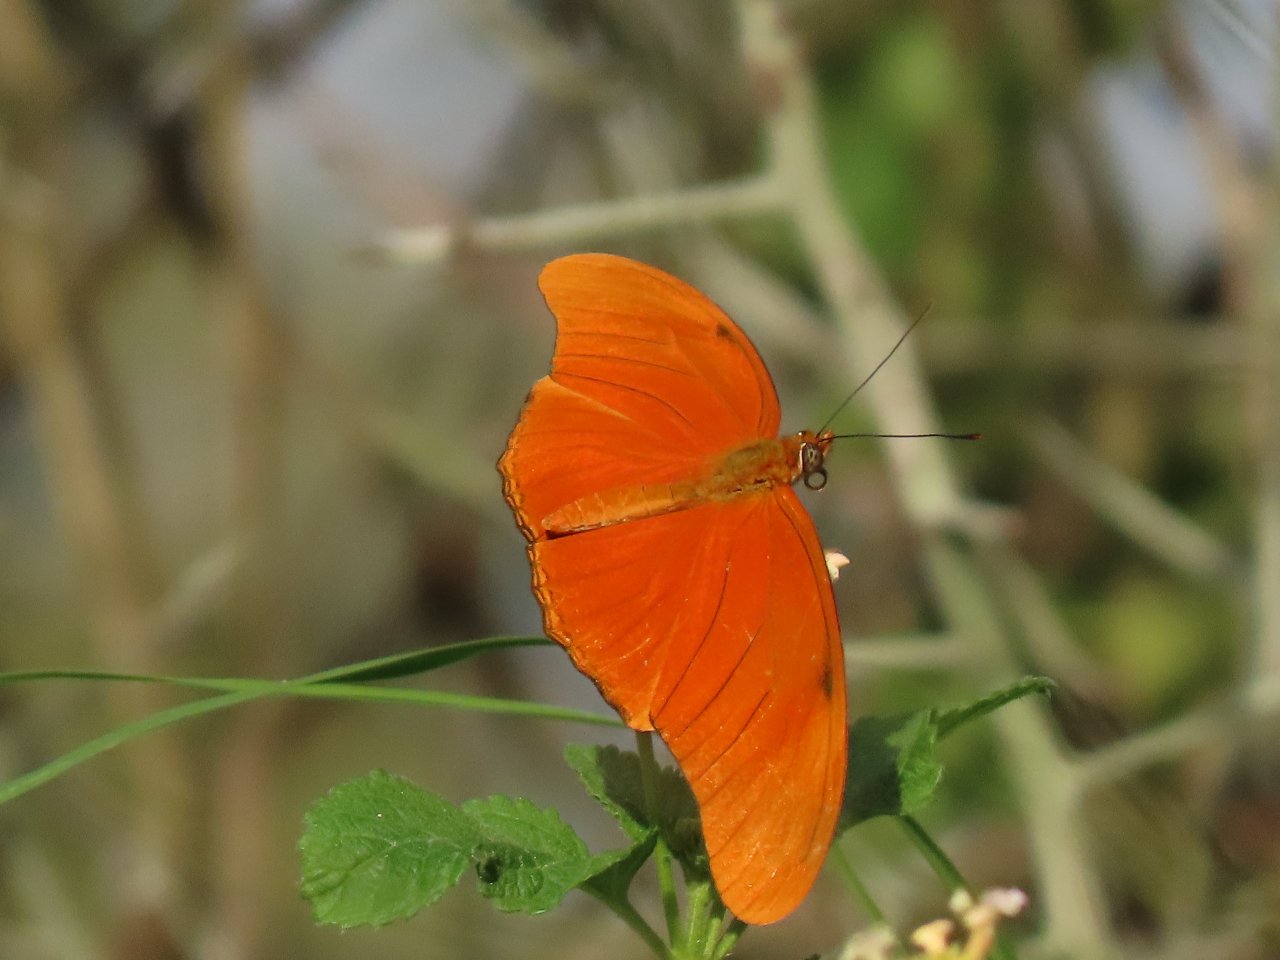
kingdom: Animalia
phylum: Arthropoda
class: Insecta
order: Lepidoptera
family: Nymphalidae
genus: Dryas
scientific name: Dryas iulia
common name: Julia
